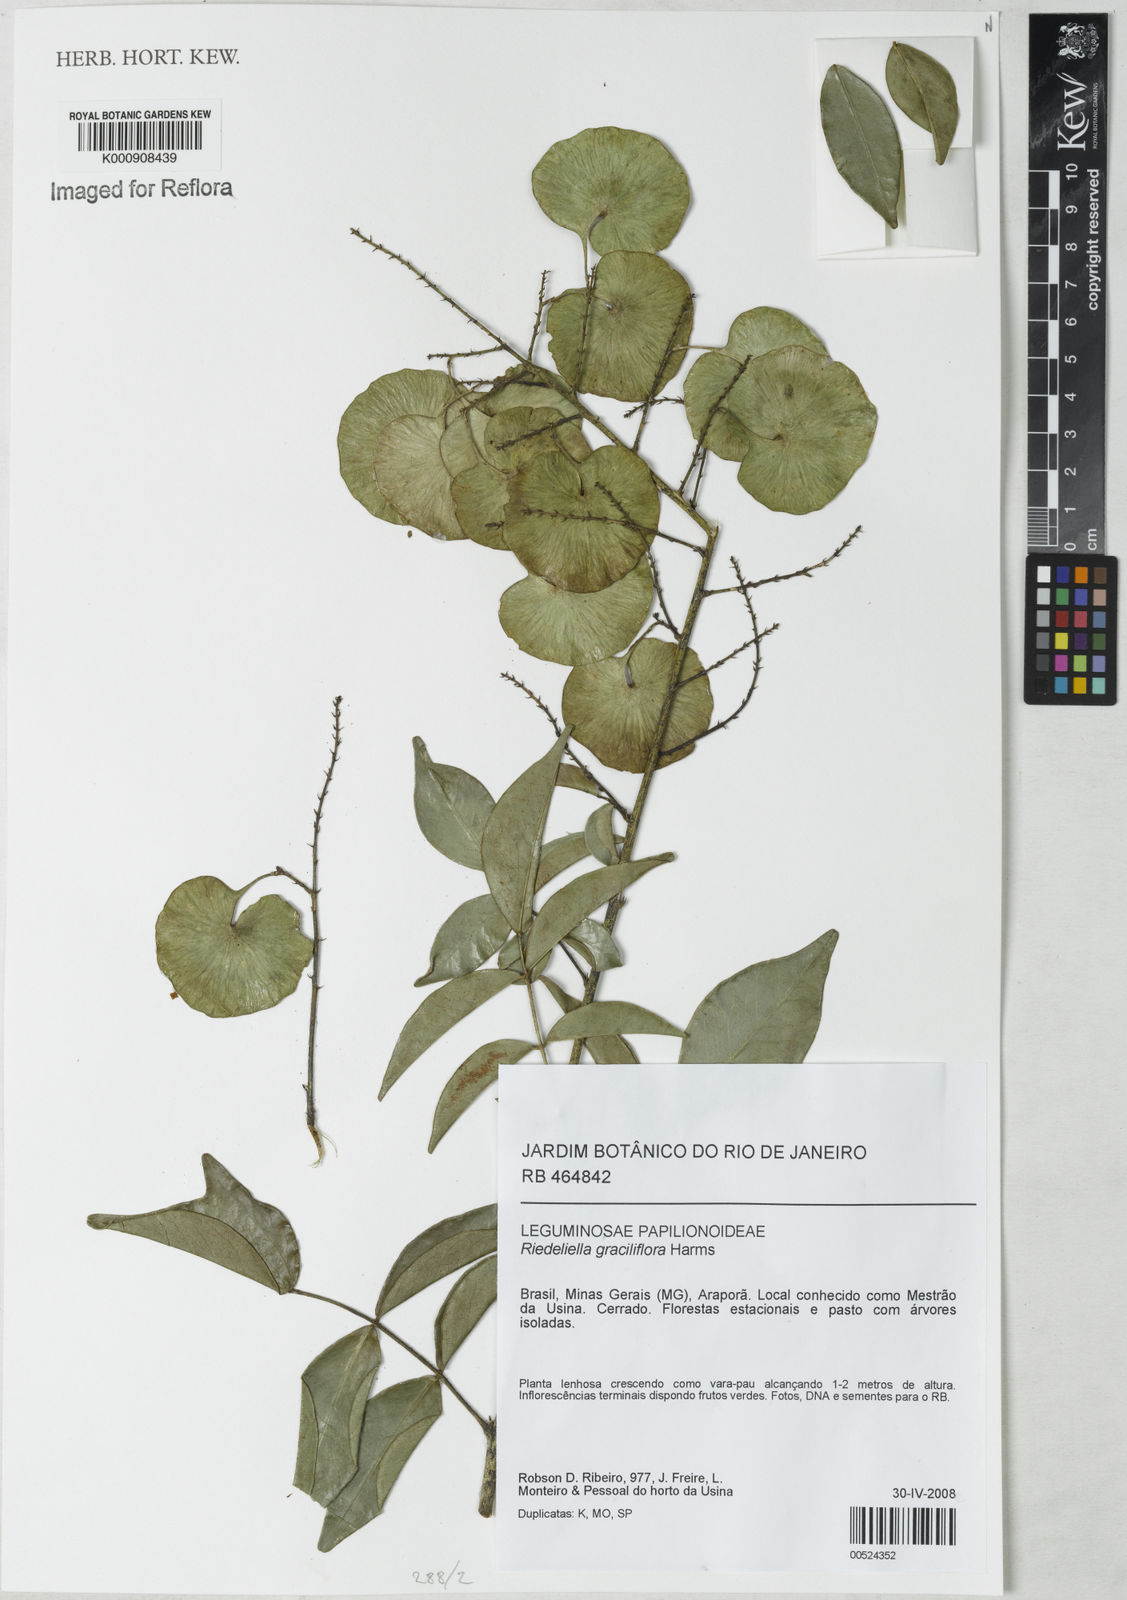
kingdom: Plantae
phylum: Tracheophyta
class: Magnoliopsida
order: Fabales
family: Fabaceae
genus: Riedeliella
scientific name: Riedeliella graciliflora
